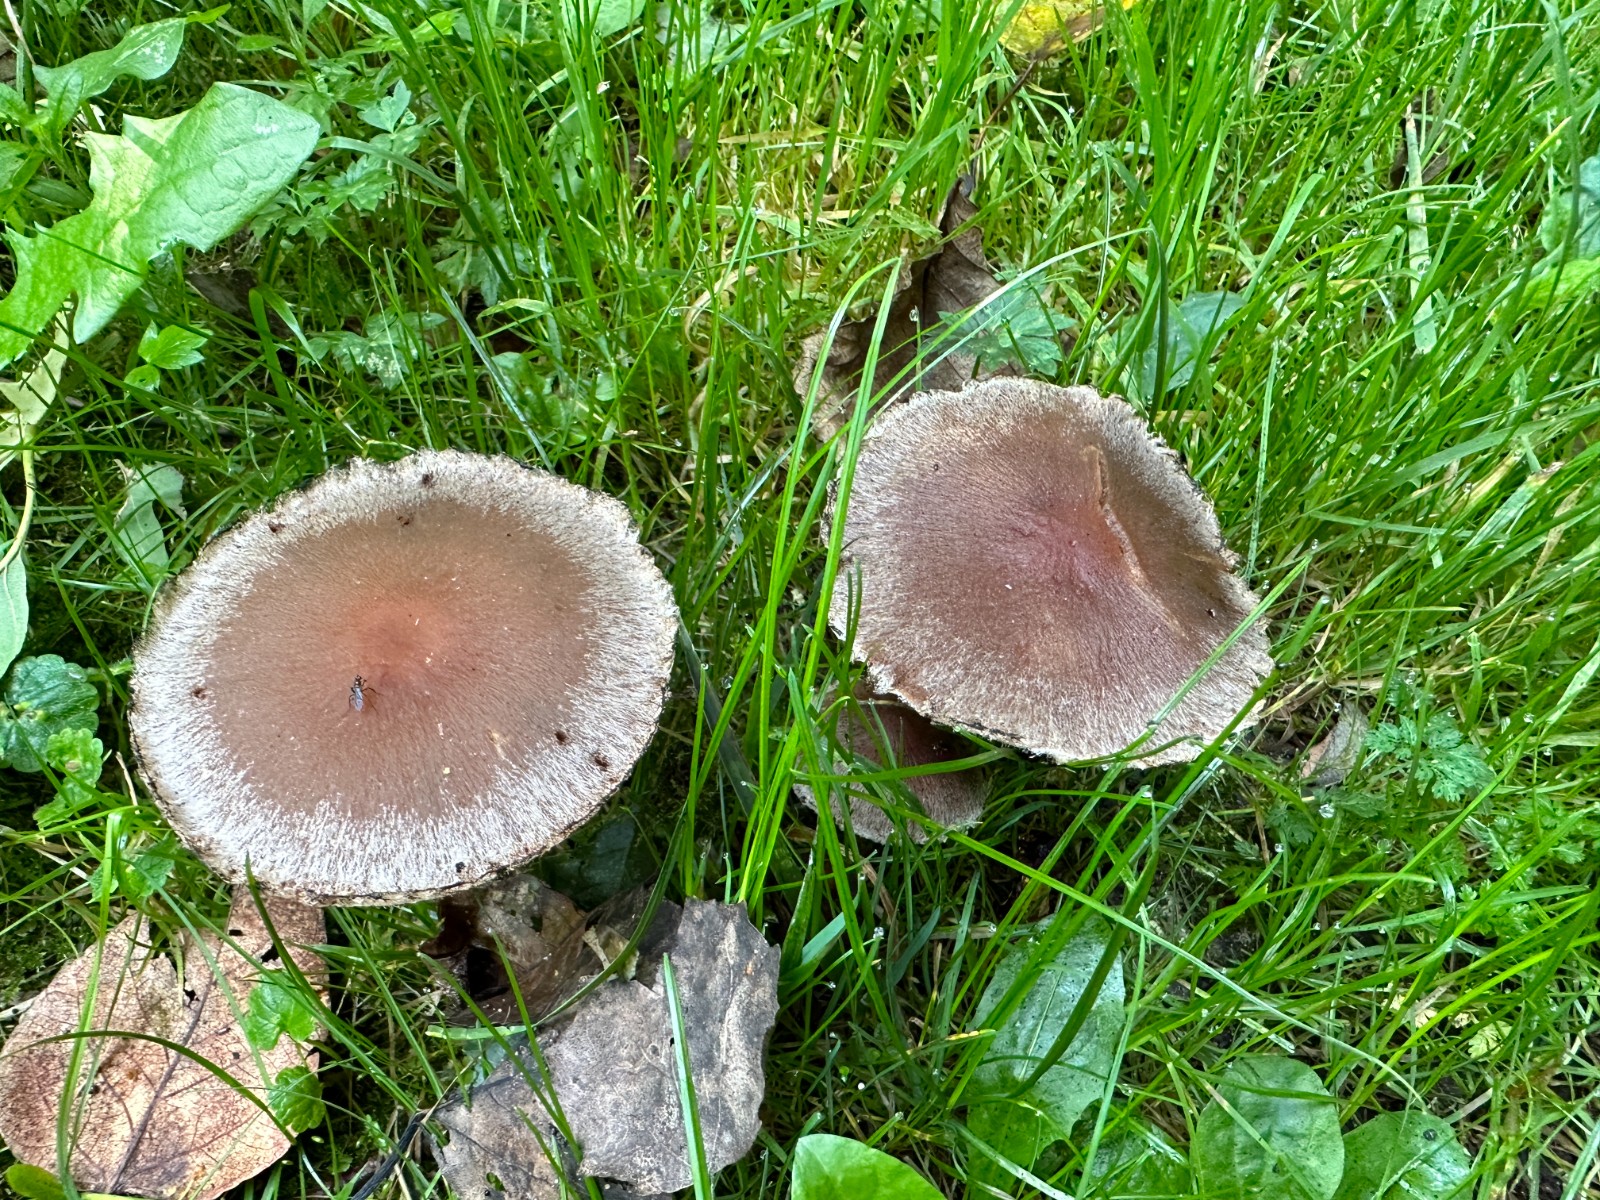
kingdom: Fungi
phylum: Basidiomycota
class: Agaricomycetes
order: Agaricales
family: Psathyrellaceae
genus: Lacrymaria
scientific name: Lacrymaria lacrymabunda
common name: grædende mørkhat
